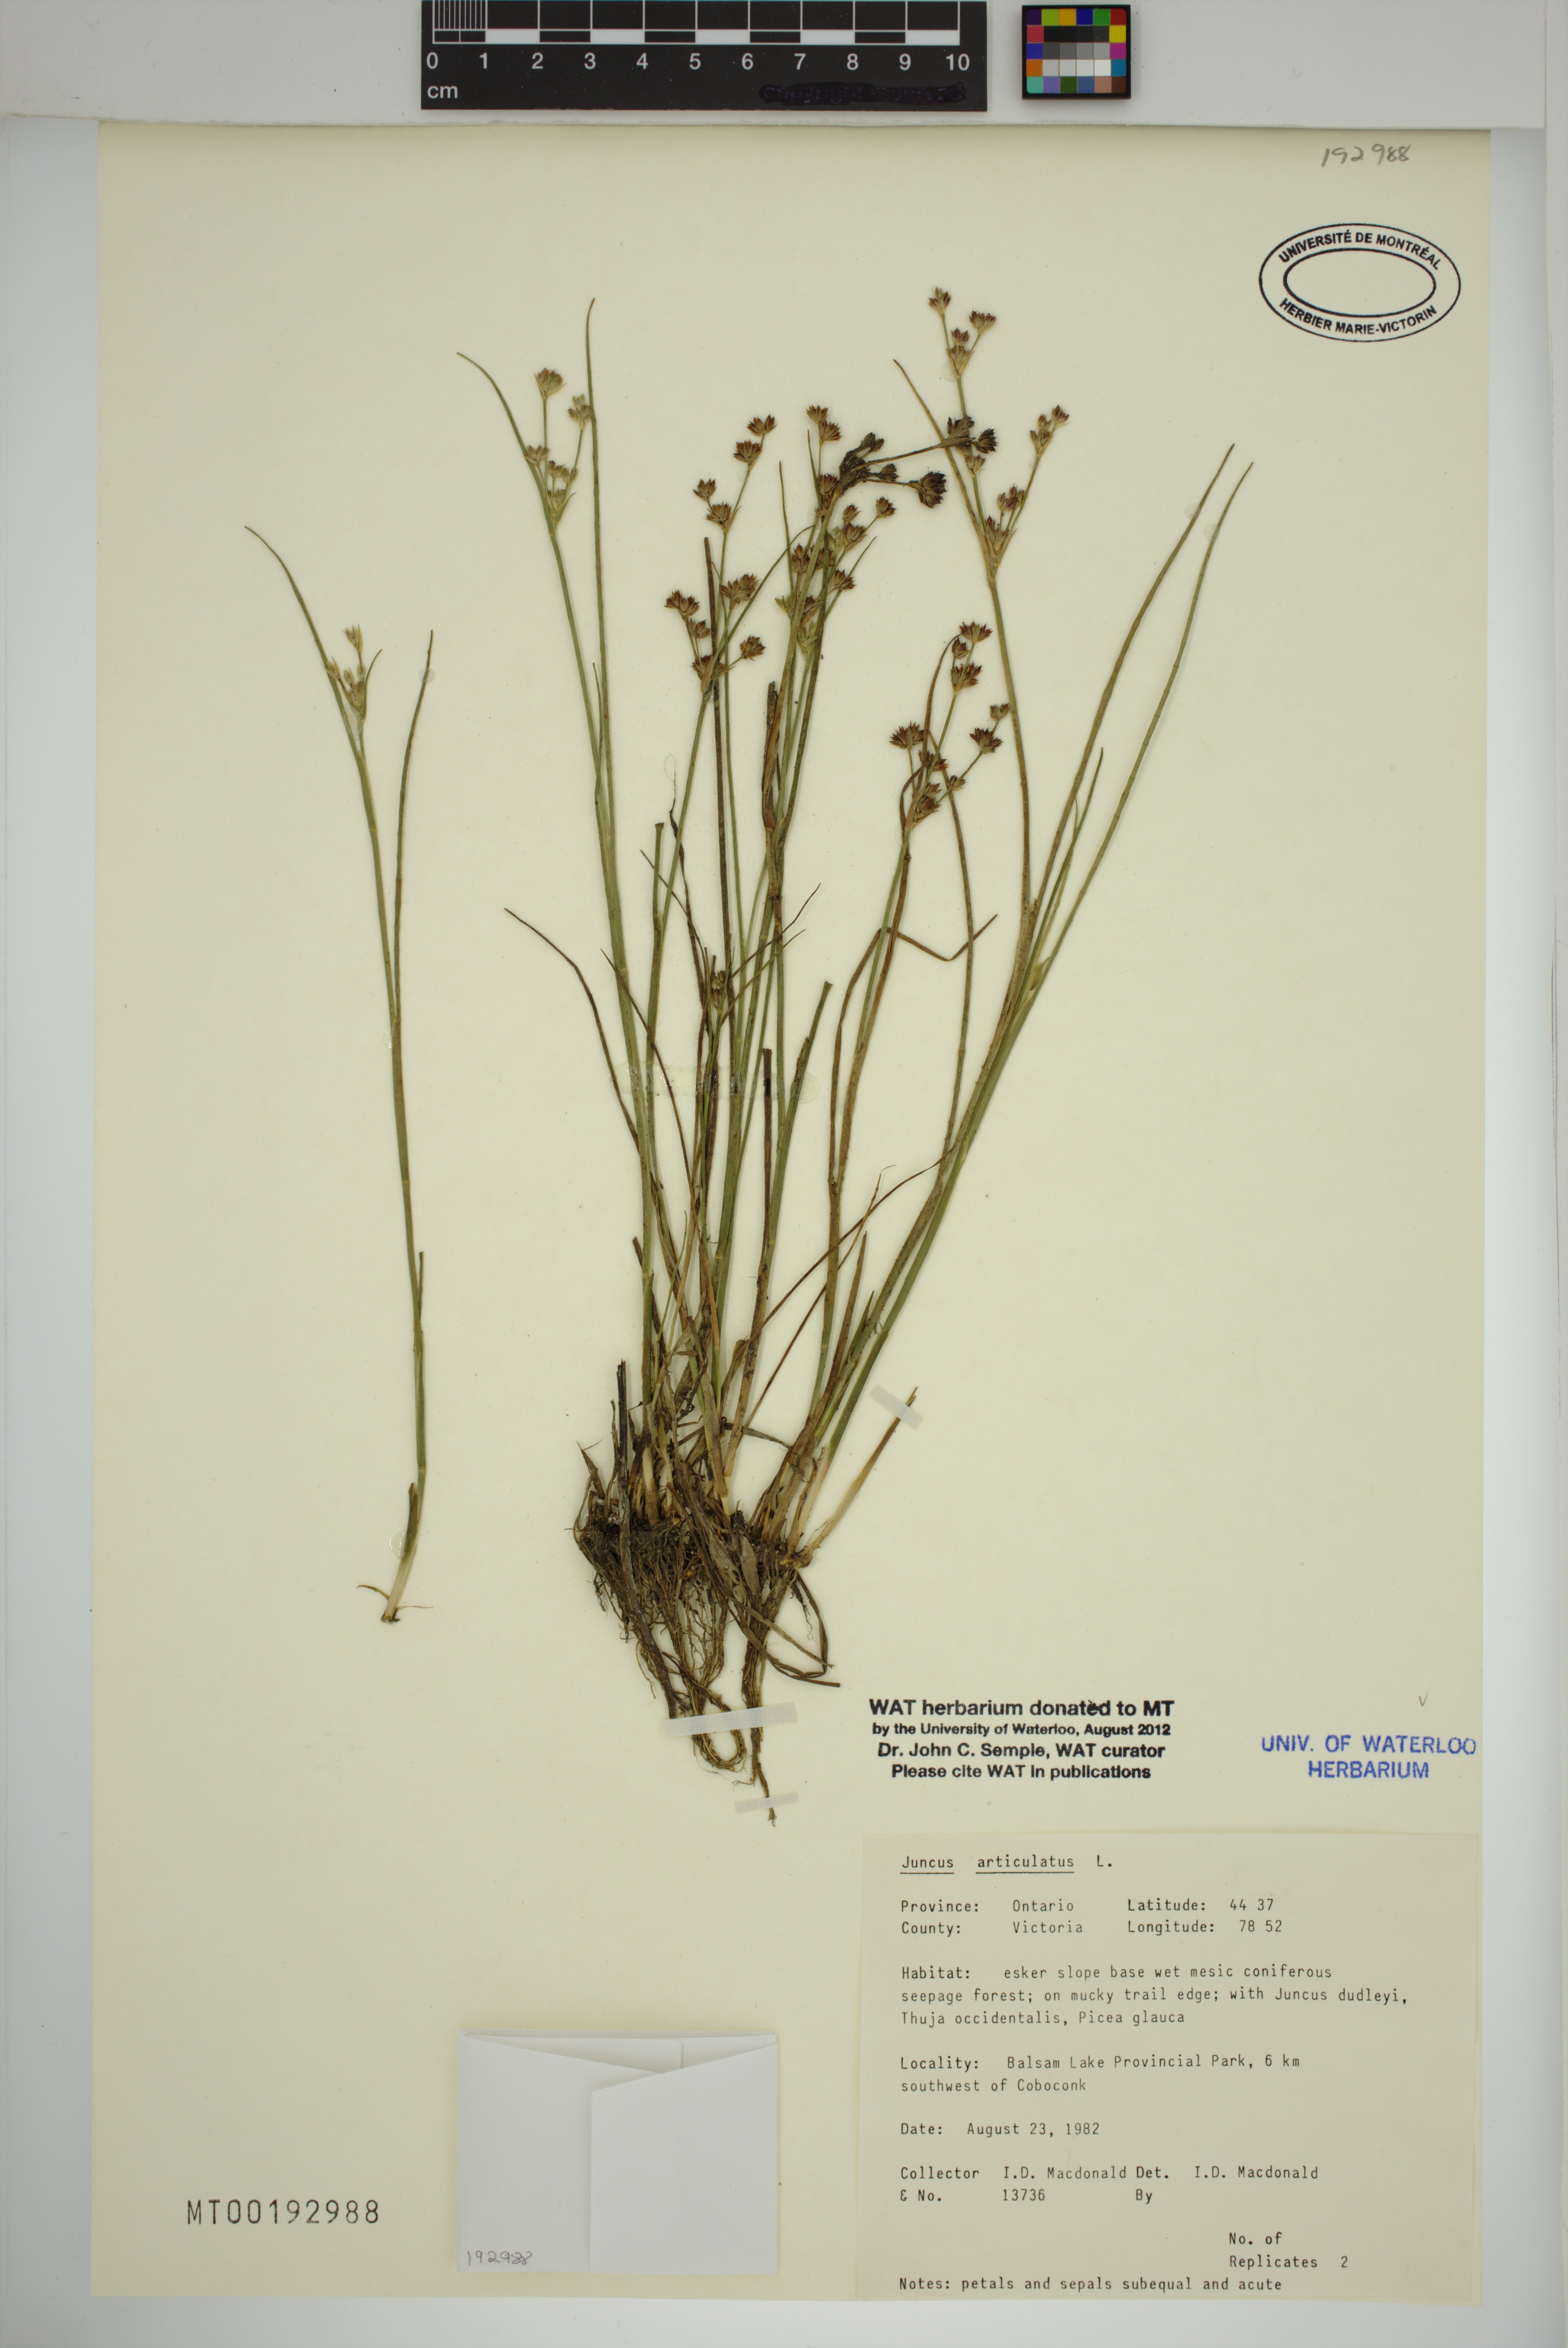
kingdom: Plantae
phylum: Tracheophyta
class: Liliopsida
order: Poales
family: Juncaceae
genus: Juncus
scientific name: Juncus articulatus
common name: Jointed rush
